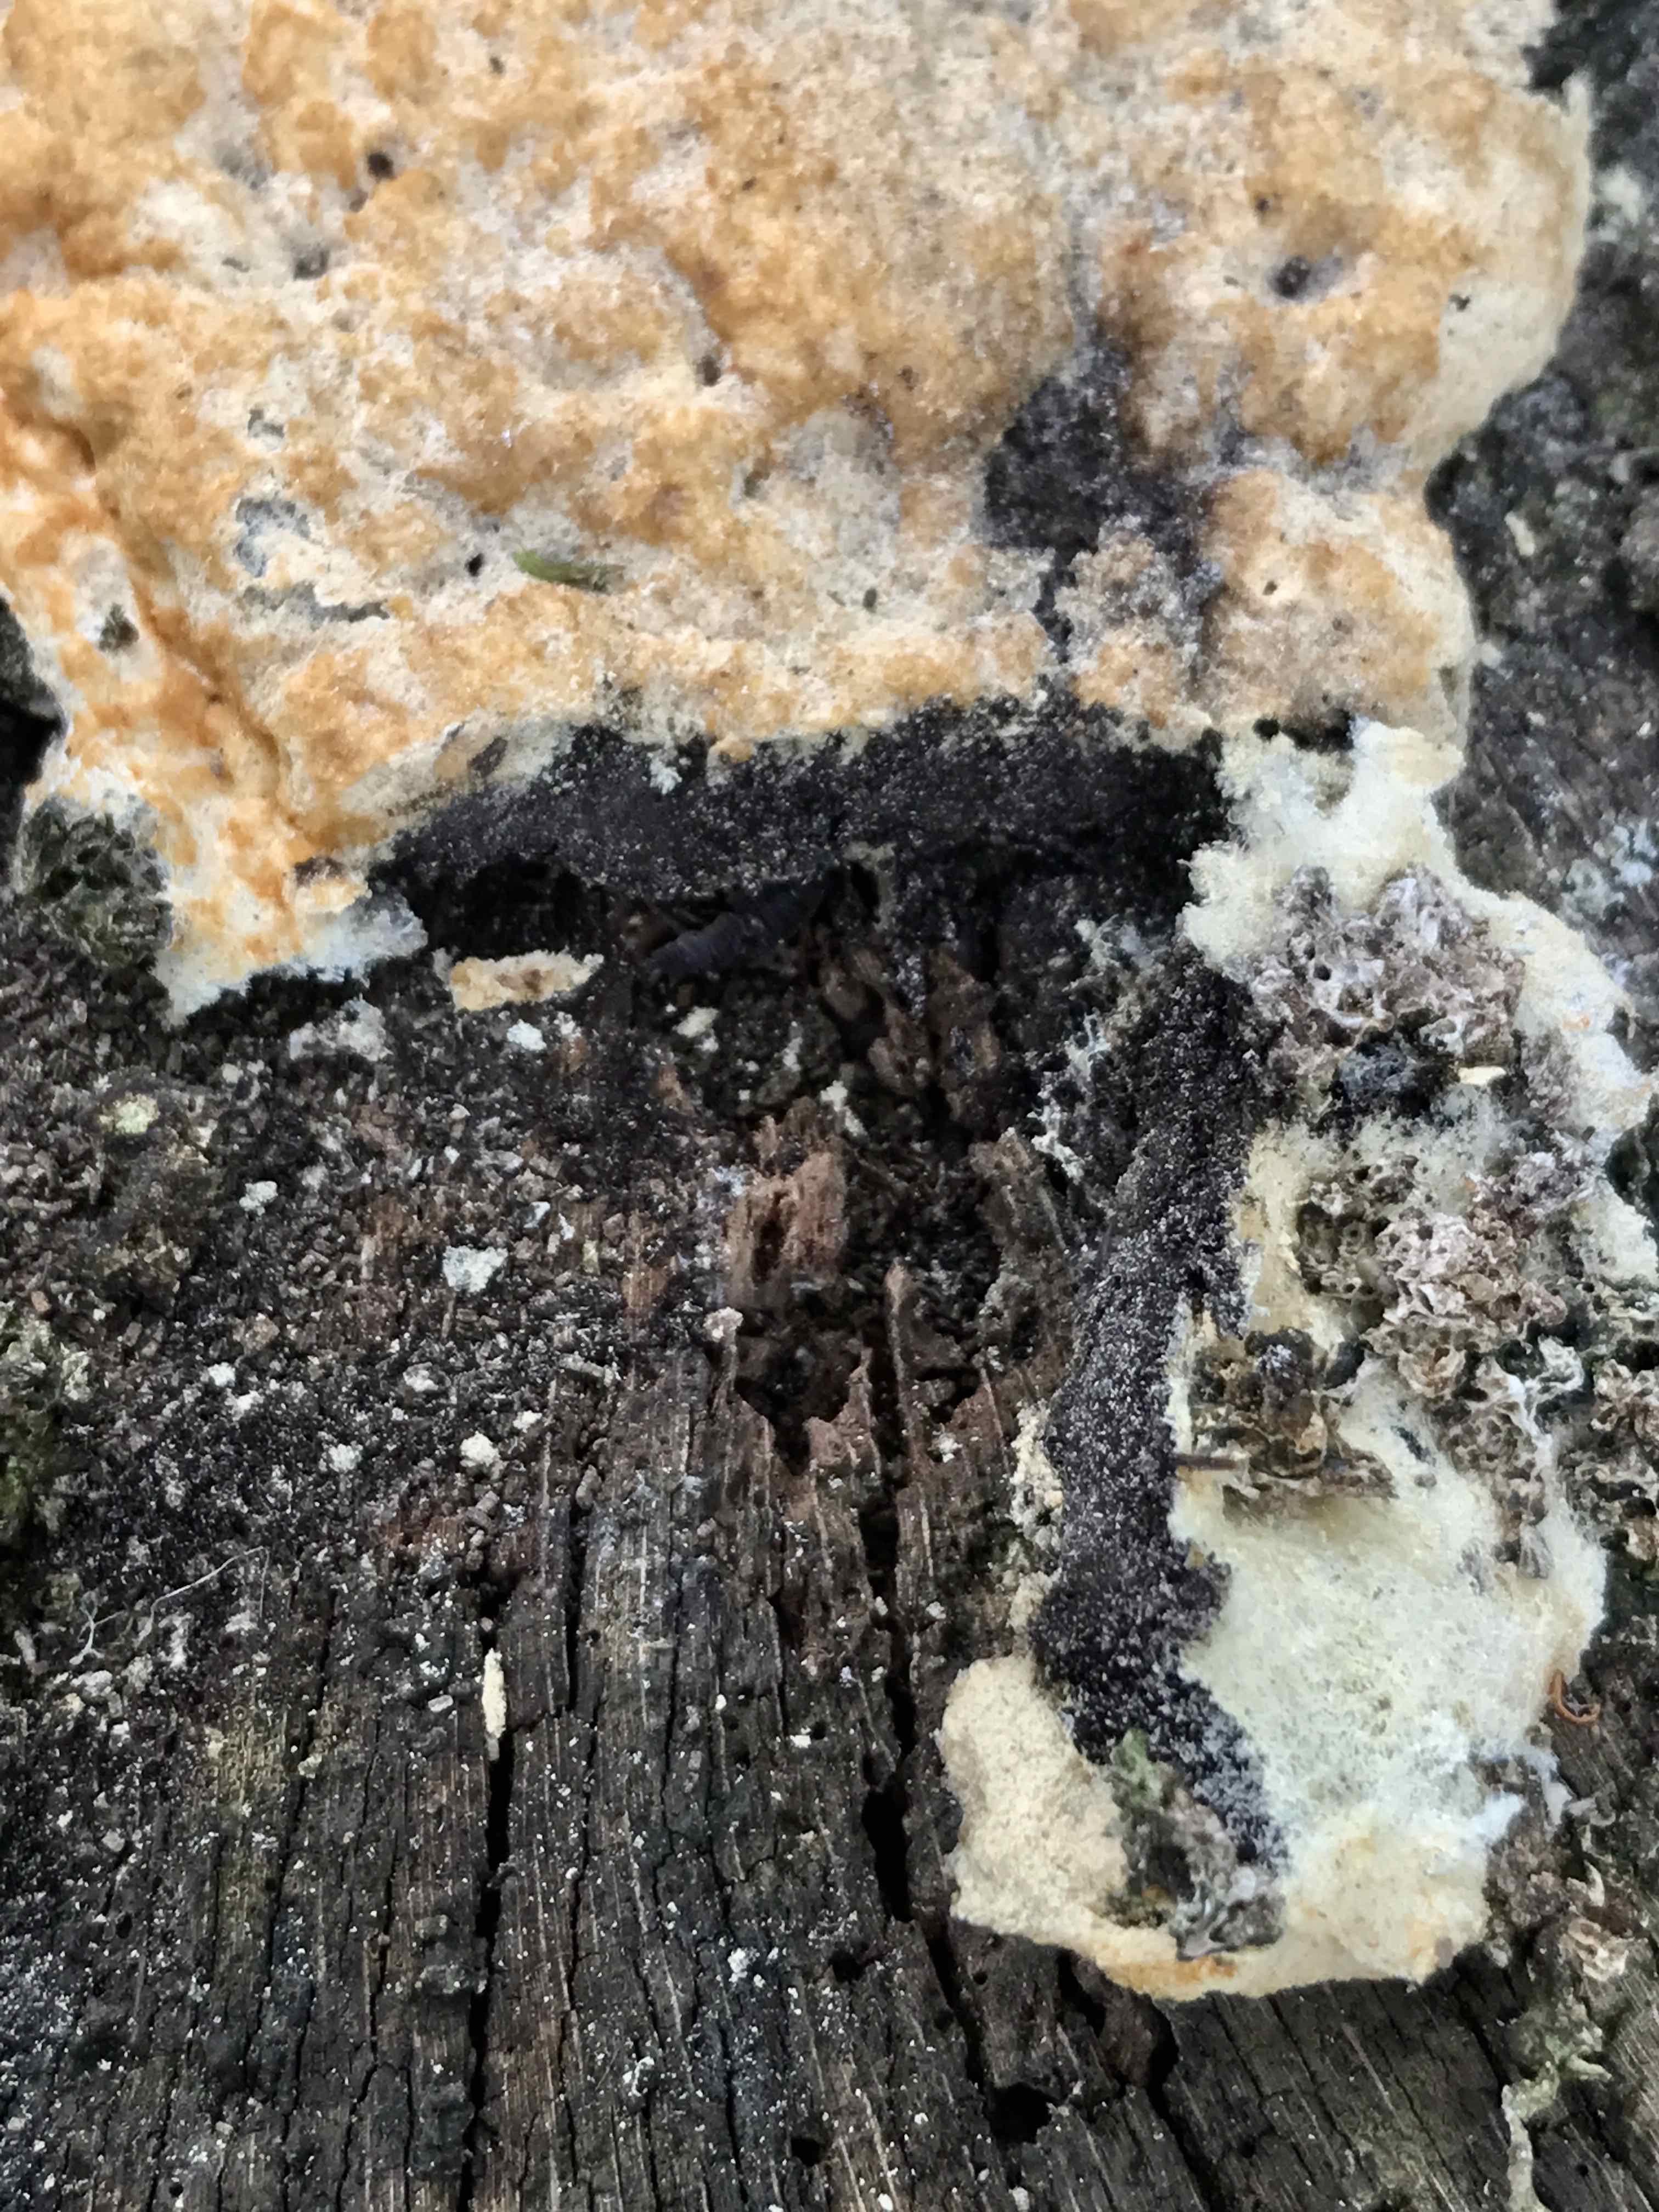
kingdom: Protozoa
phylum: Mycetozoa
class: Myxomycetes
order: Physarales
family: Physaraceae
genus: Fuligo
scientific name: Fuligo septica
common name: gul troldsmør
